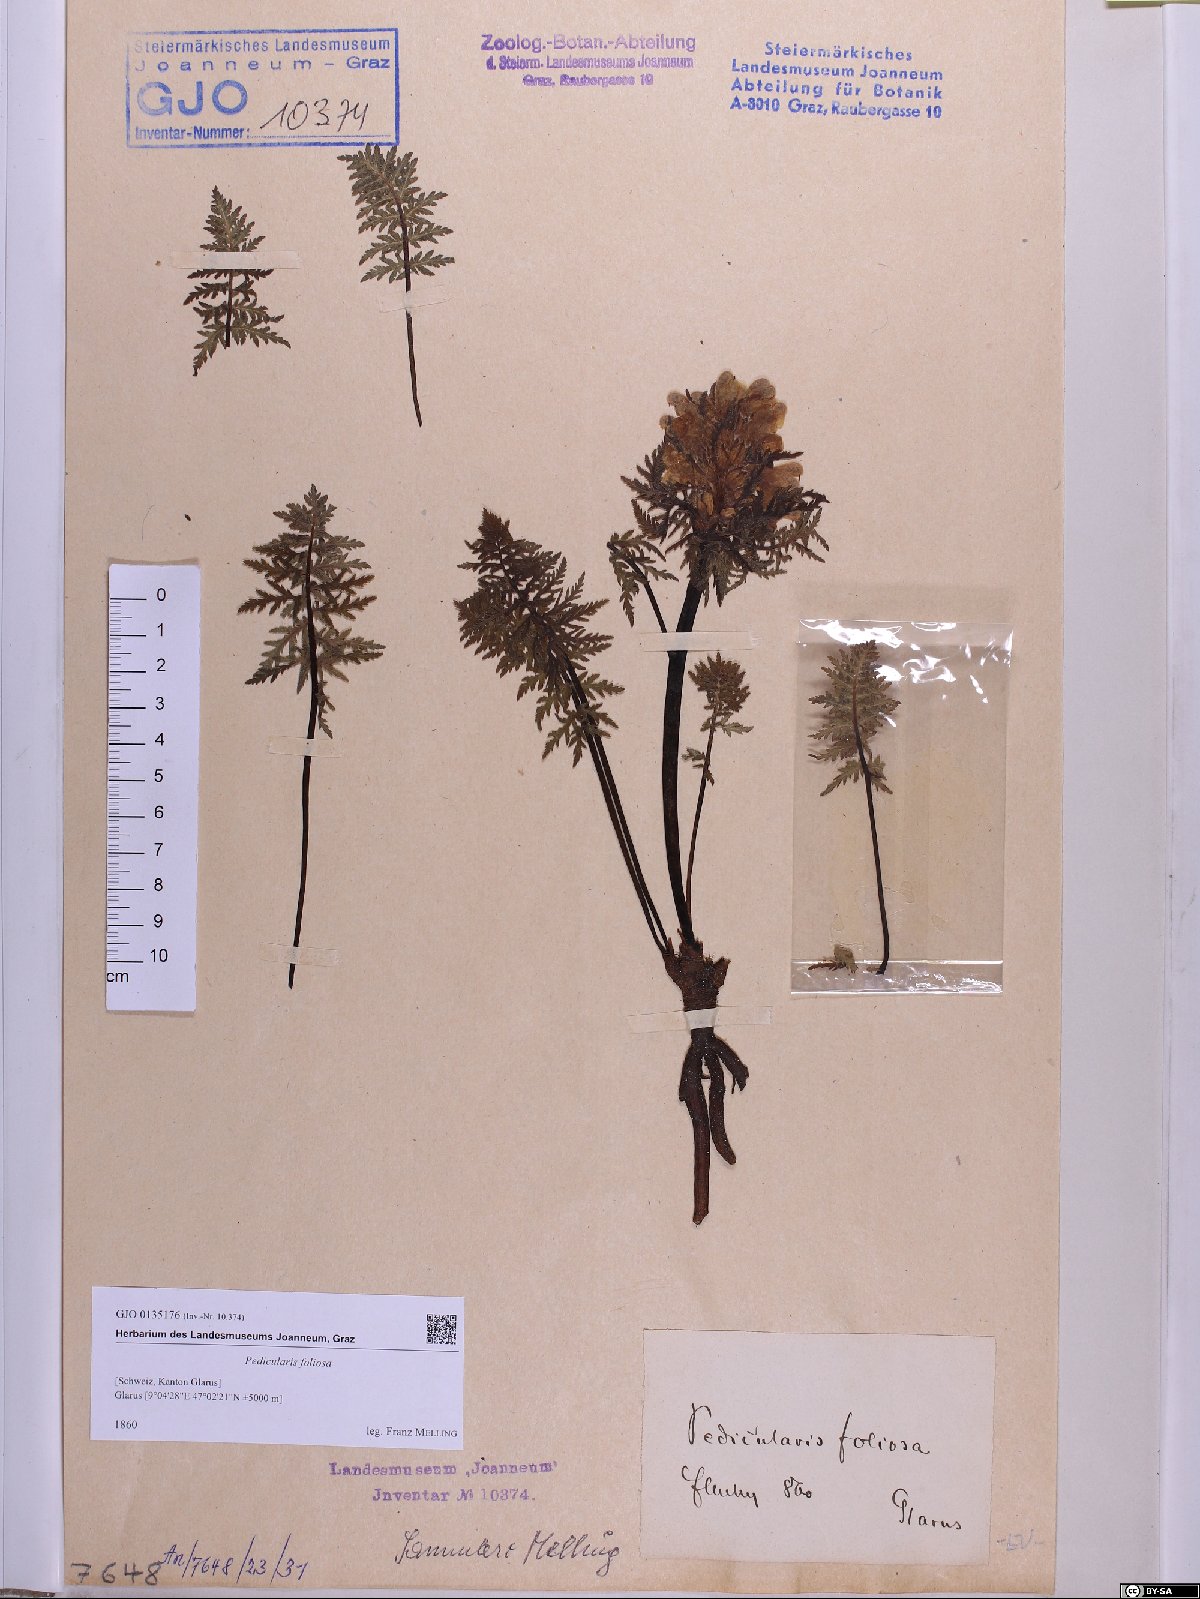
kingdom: Plantae
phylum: Tracheophyta
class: Magnoliopsida
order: Lamiales
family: Orobanchaceae
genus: Pedicularis
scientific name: Pedicularis foliosa
